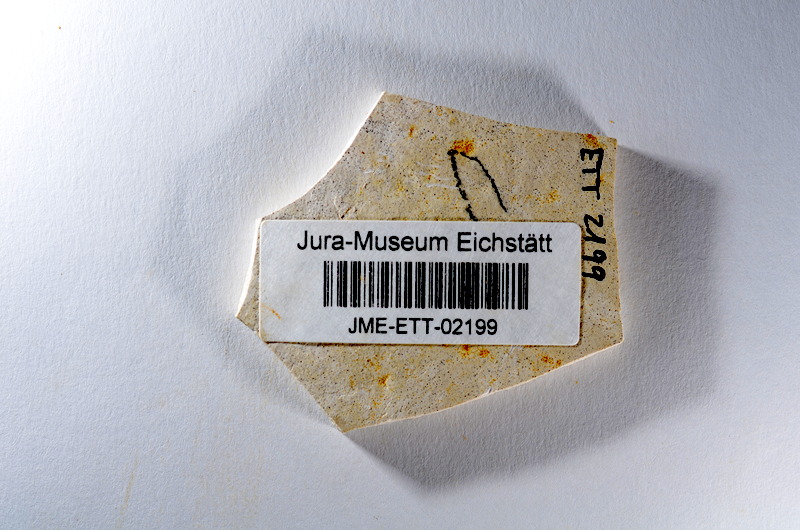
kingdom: Animalia
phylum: Chordata
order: Salmoniformes
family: Orthogonikleithridae
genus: Orthogonikleithrus
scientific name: Orthogonikleithrus hoelli
